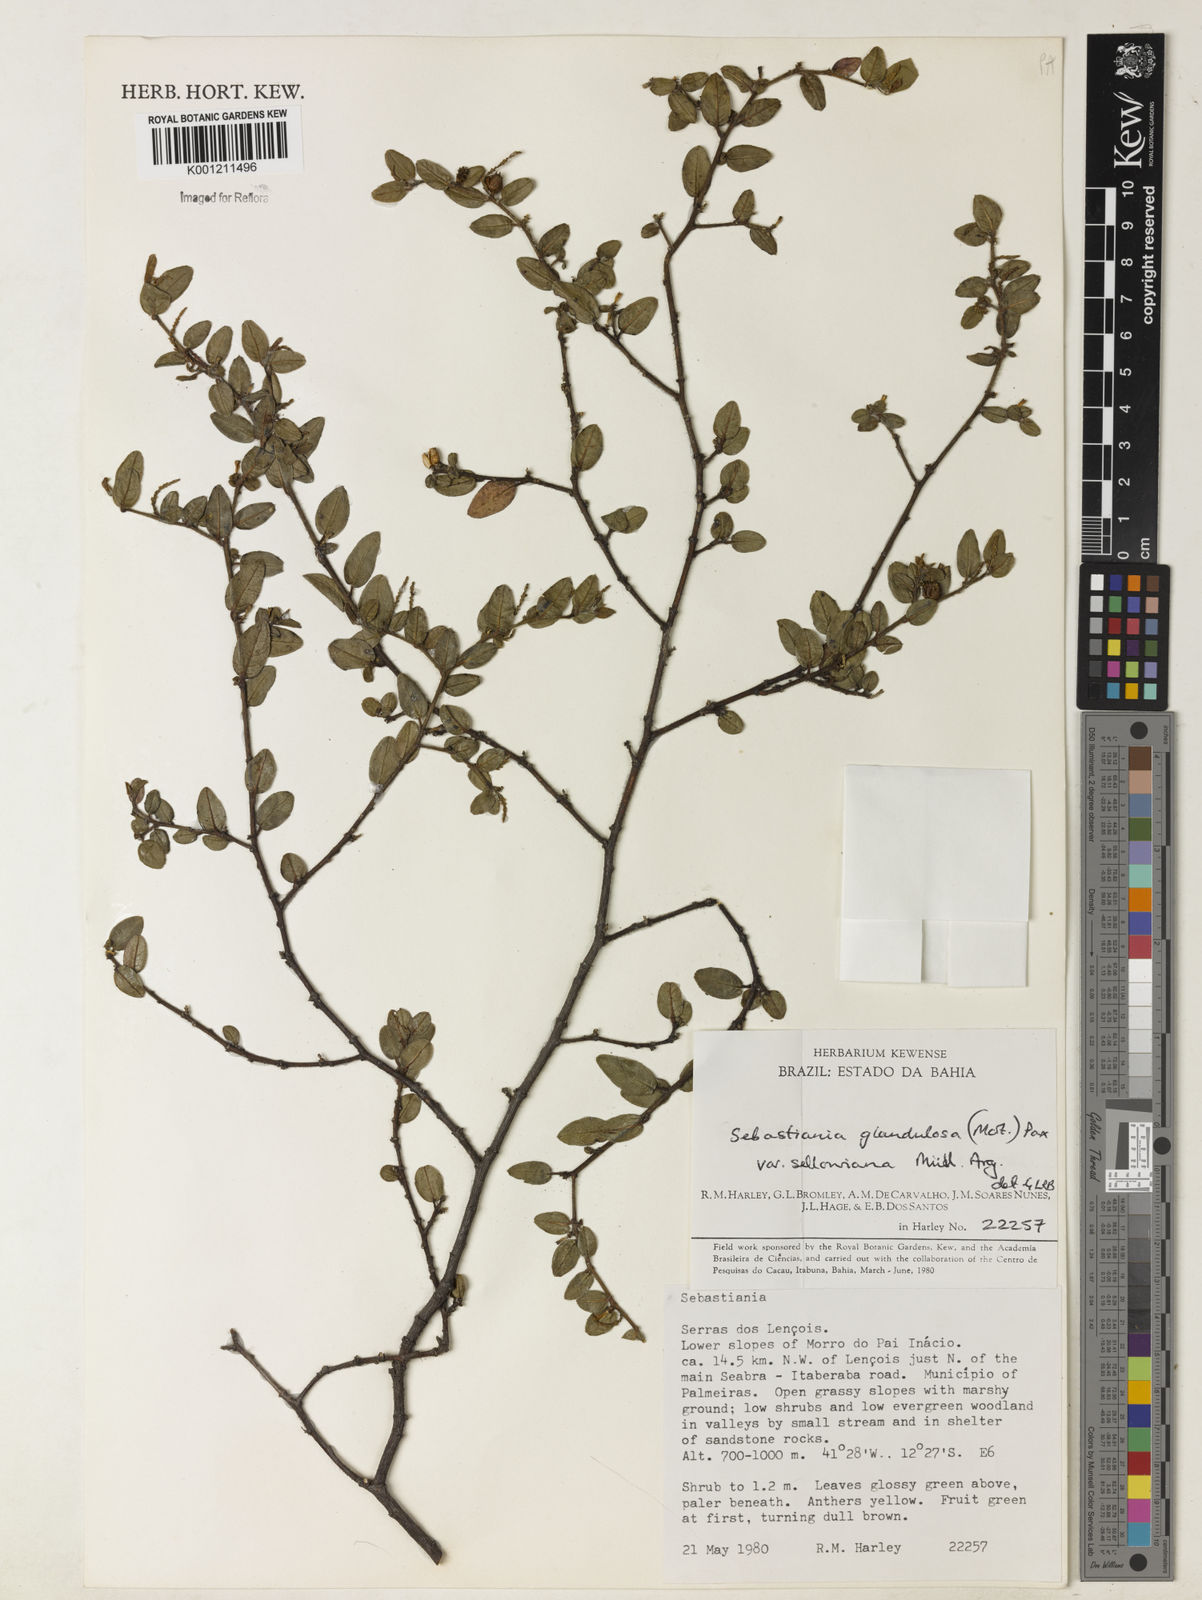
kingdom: Plantae
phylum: Tracheophyta
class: Magnoliopsida
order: Malpighiales
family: Euphorbiaceae
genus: Microstachys
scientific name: Microstachys glandulosa
